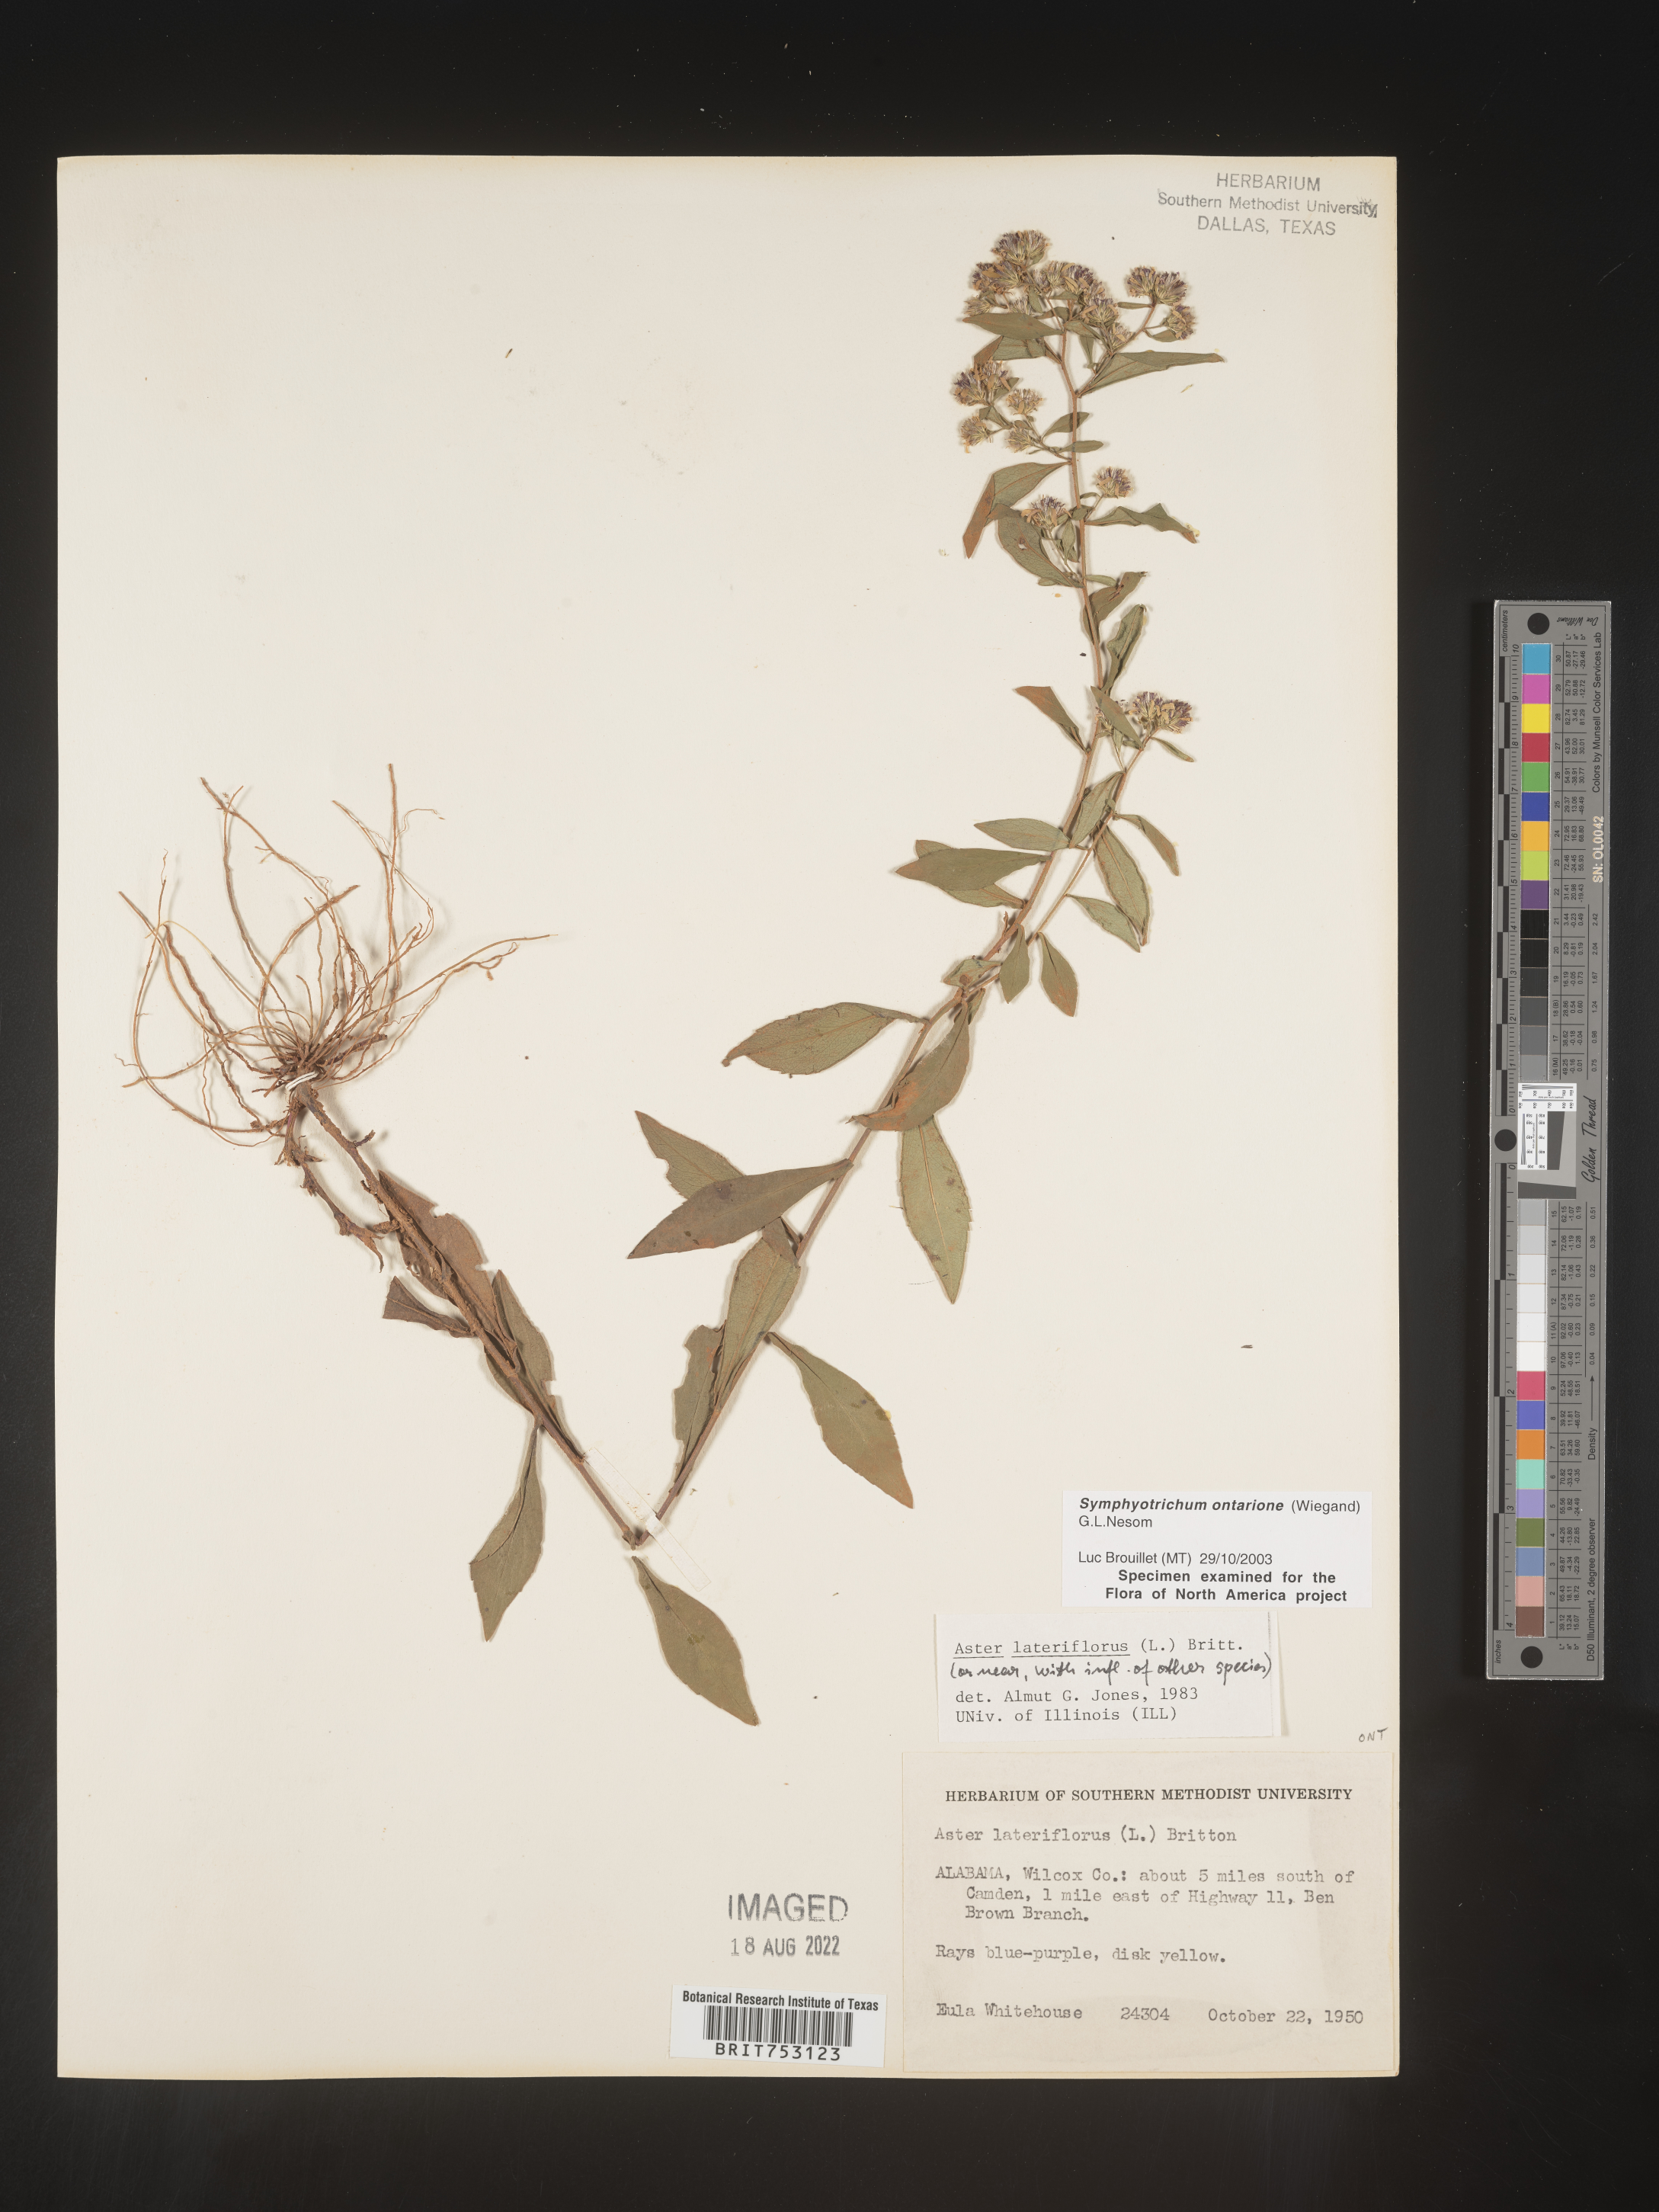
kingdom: Plantae
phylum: Tracheophyta
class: Magnoliopsida
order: Asterales
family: Asteraceae
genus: Symphyotrichum
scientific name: Symphyotrichum ontarionis
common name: Bottomland aster
